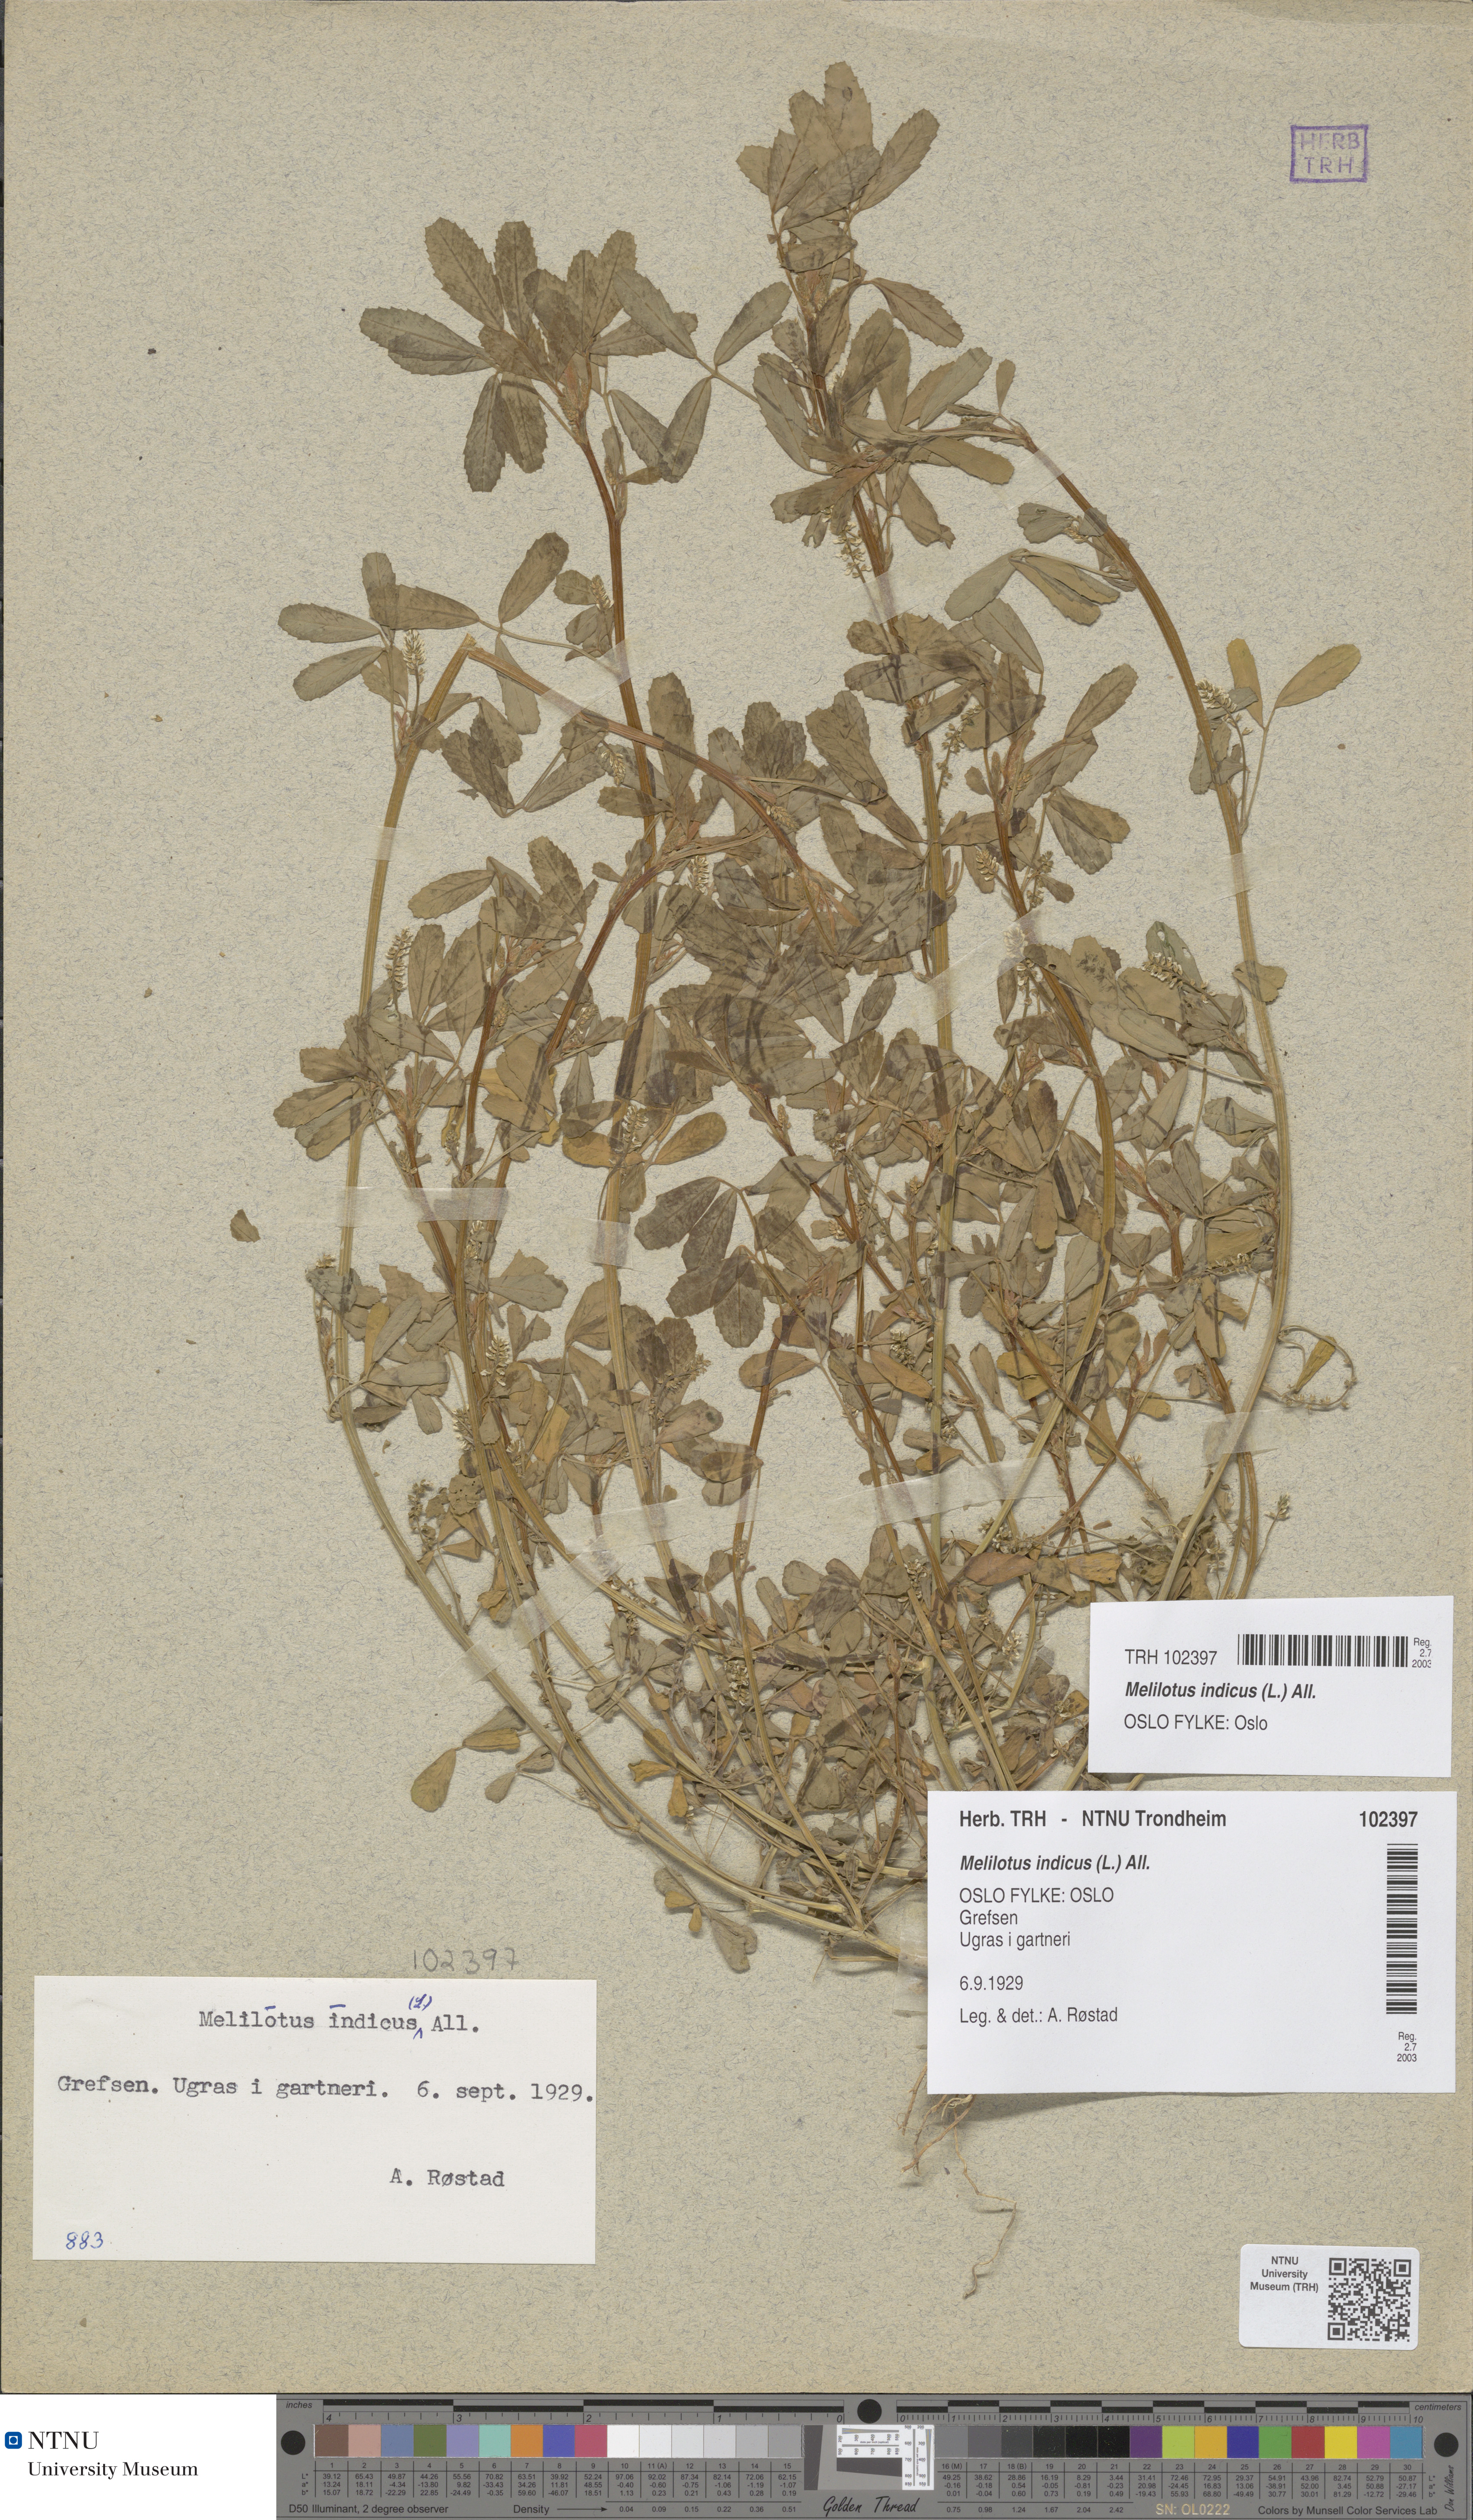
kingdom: Plantae
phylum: Tracheophyta
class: Magnoliopsida
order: Fabales
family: Fabaceae
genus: Melilotus
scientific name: Melilotus indicus
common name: Small melilot
